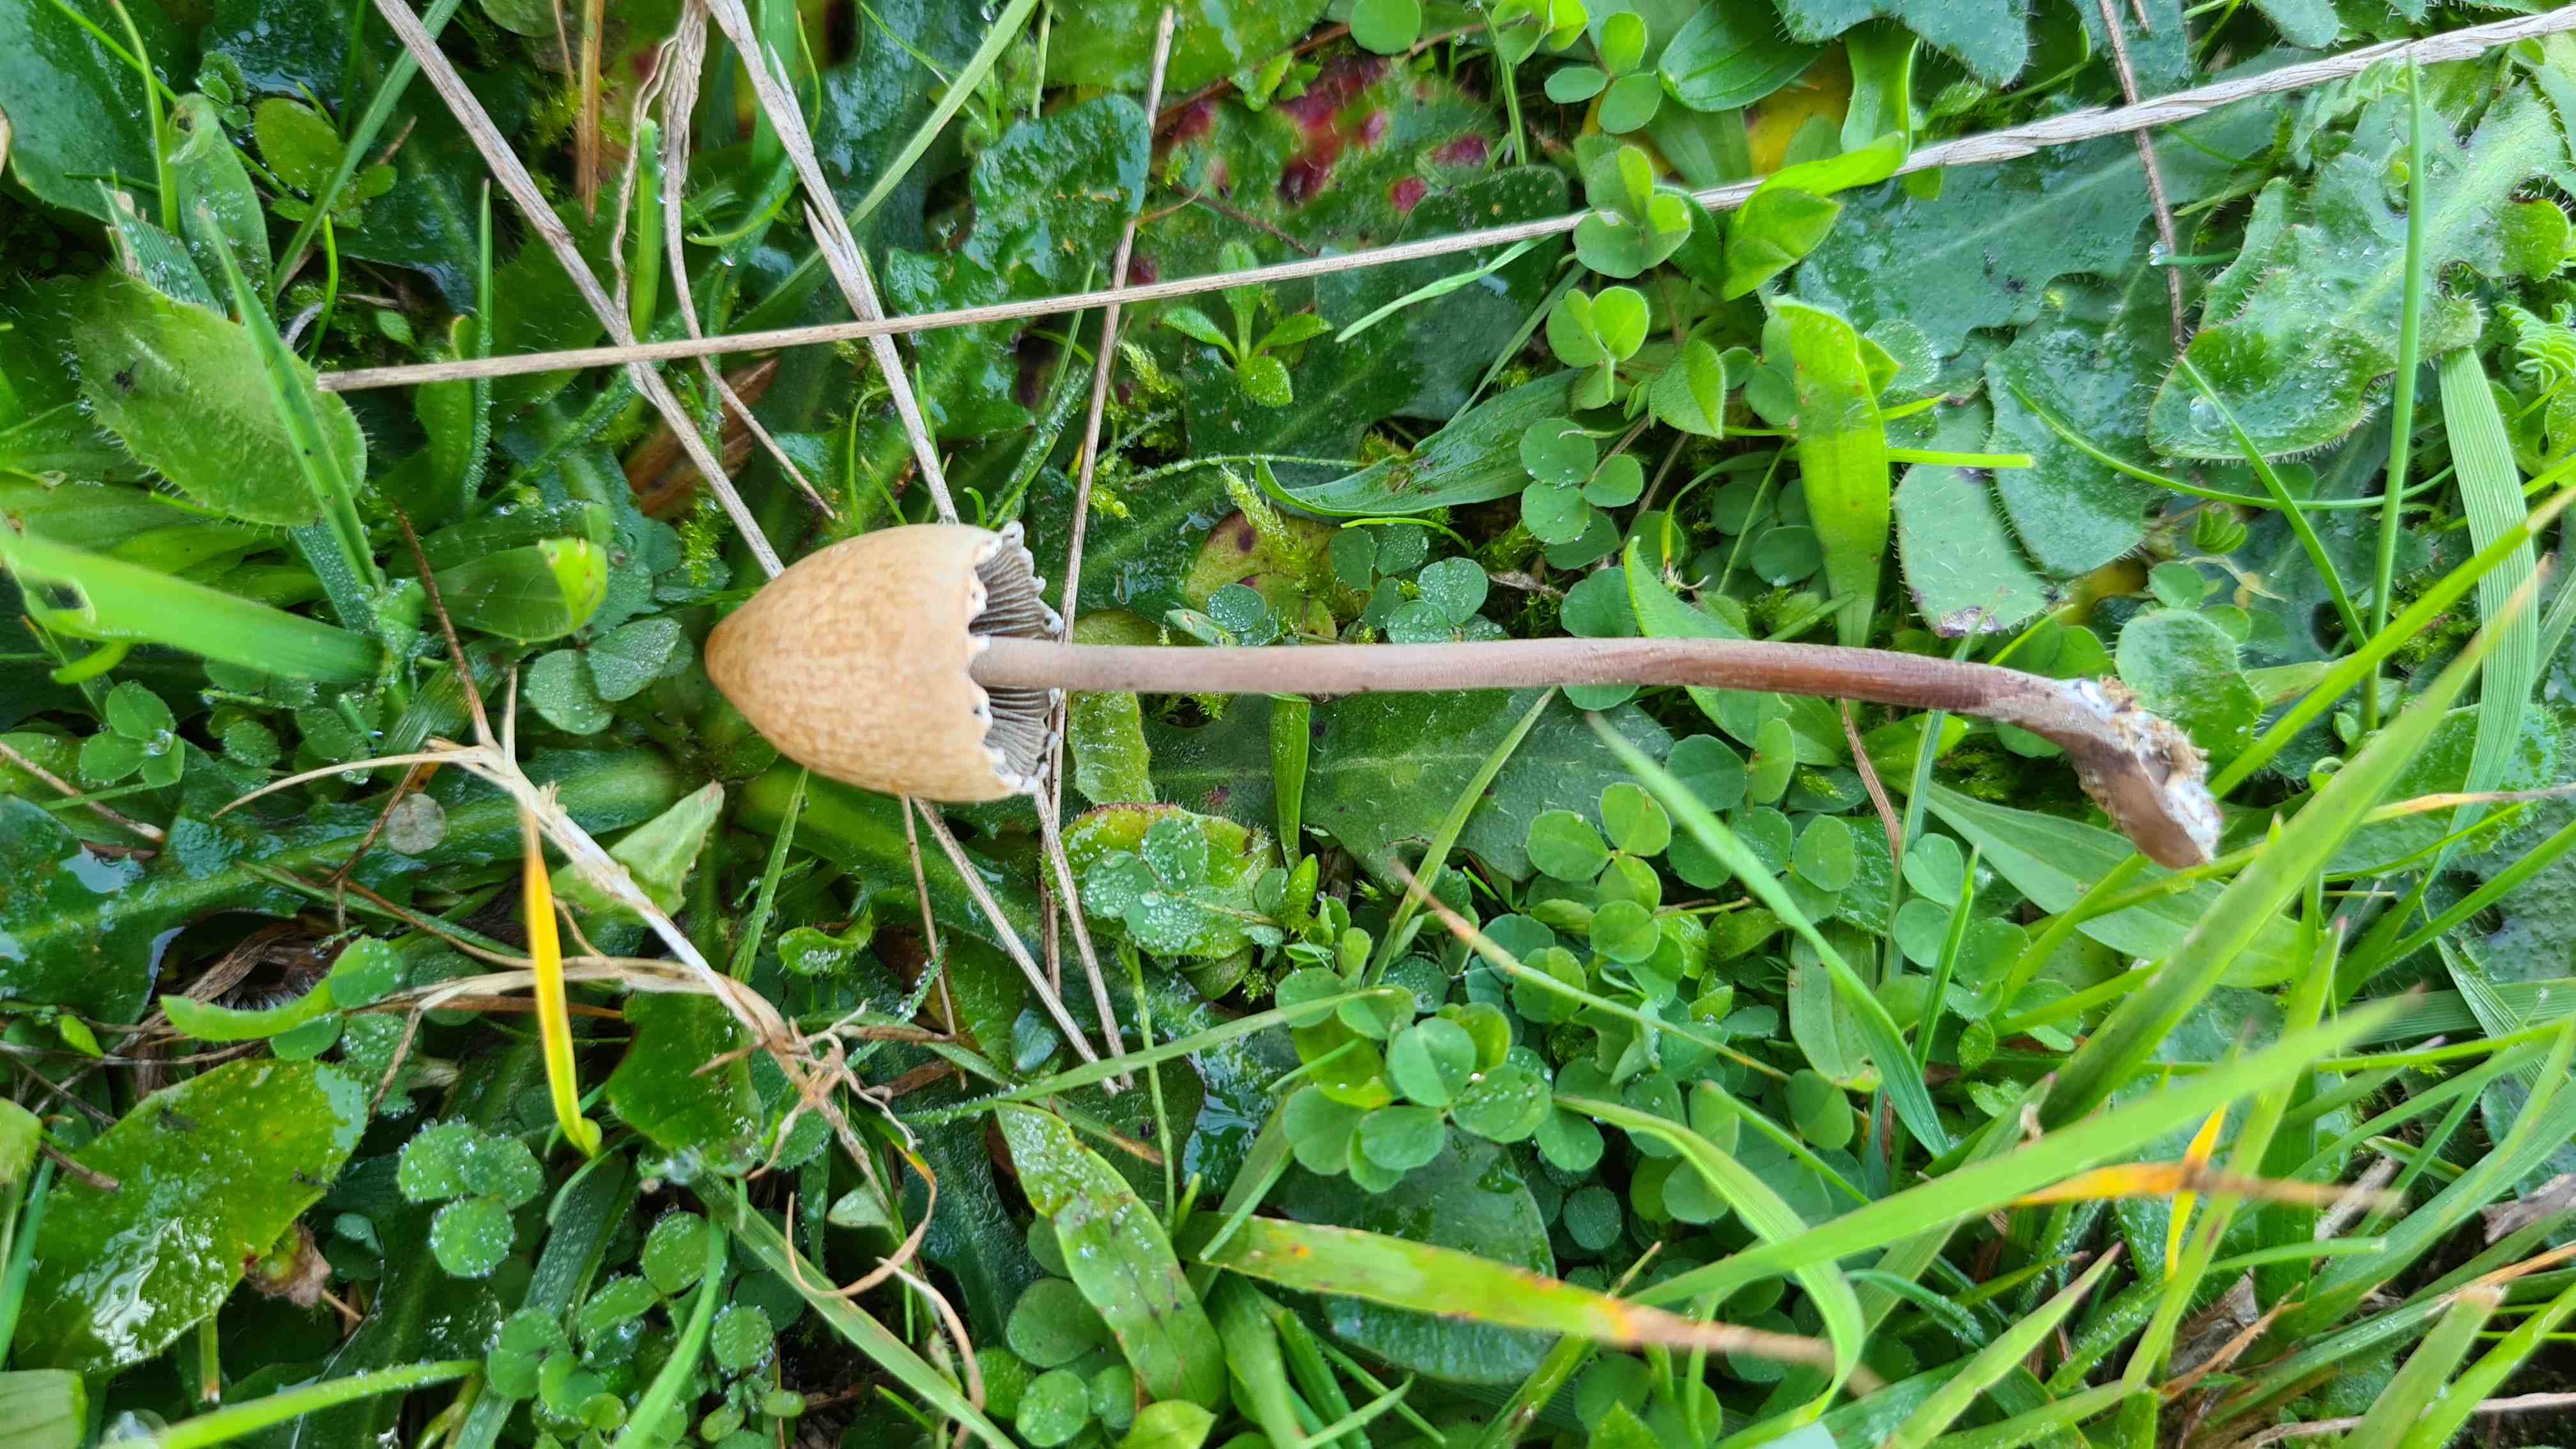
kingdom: Fungi
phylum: Basidiomycota
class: Agaricomycetes
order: Agaricales
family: Bolbitiaceae
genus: Panaeolus
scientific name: Panaeolus papilionaceus
